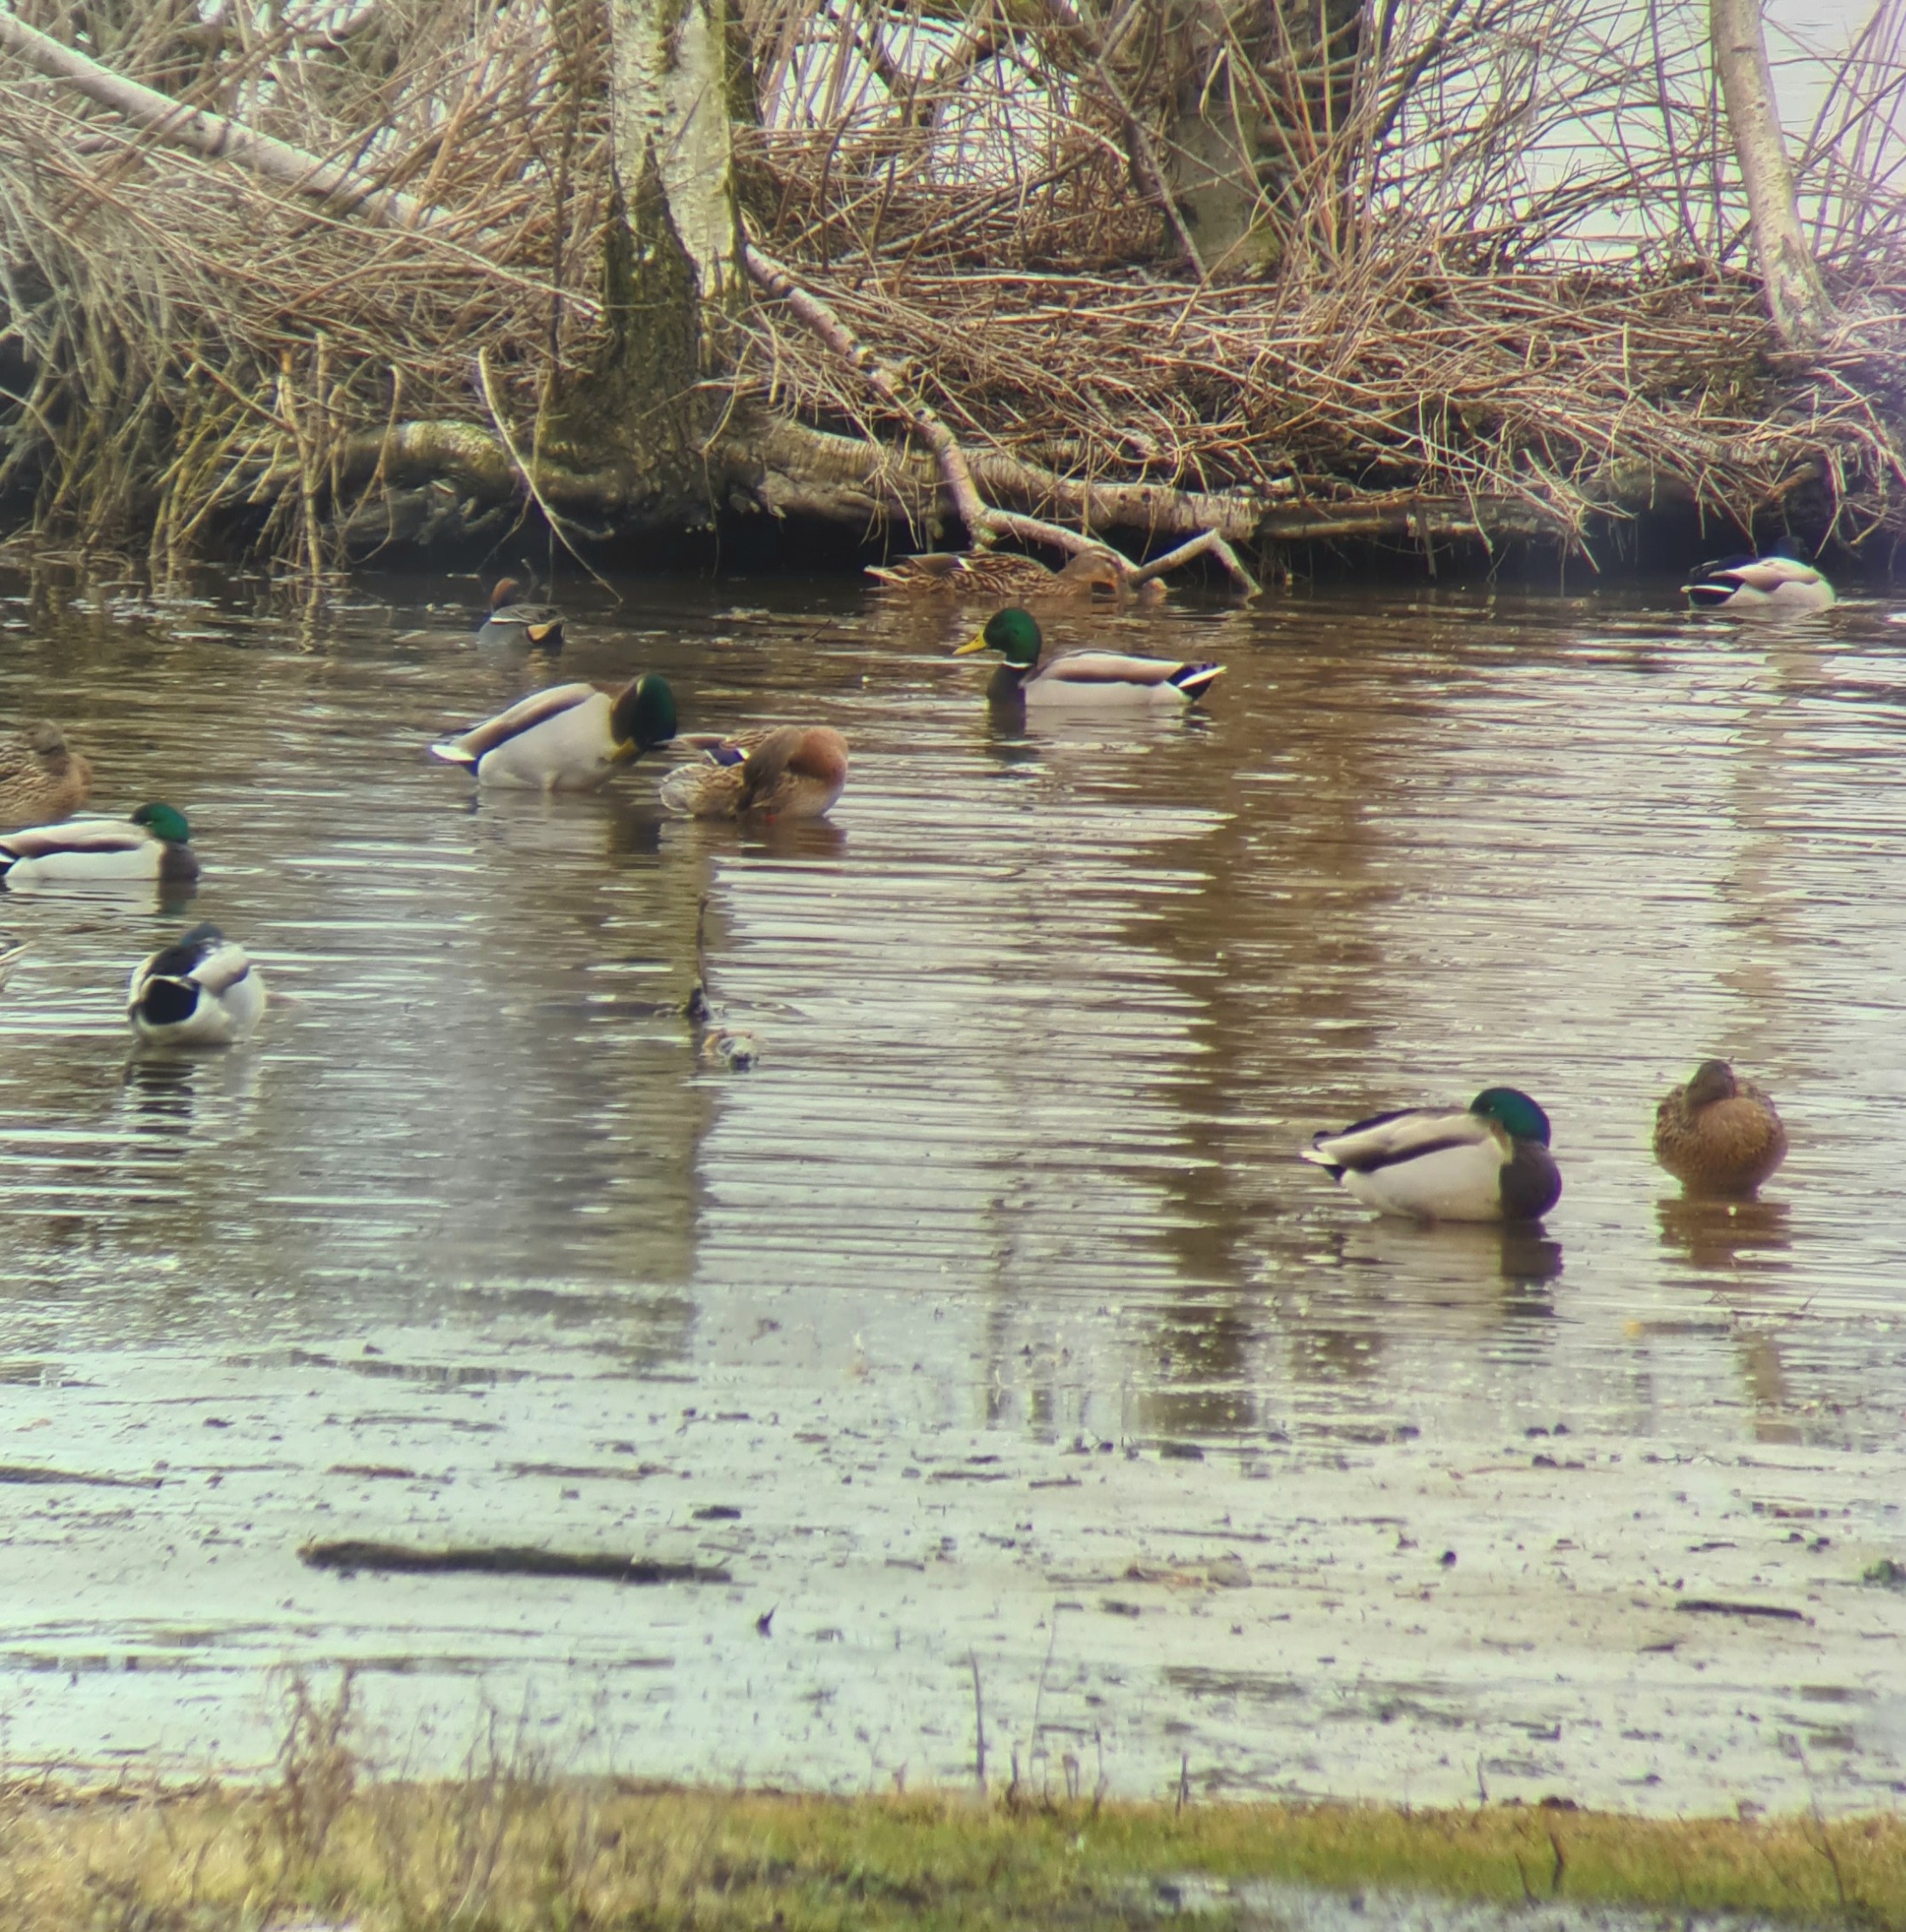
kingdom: Animalia
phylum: Chordata
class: Aves
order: Anseriformes
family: Anatidae
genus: Anas
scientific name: Anas platyrhynchos
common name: Gråand
